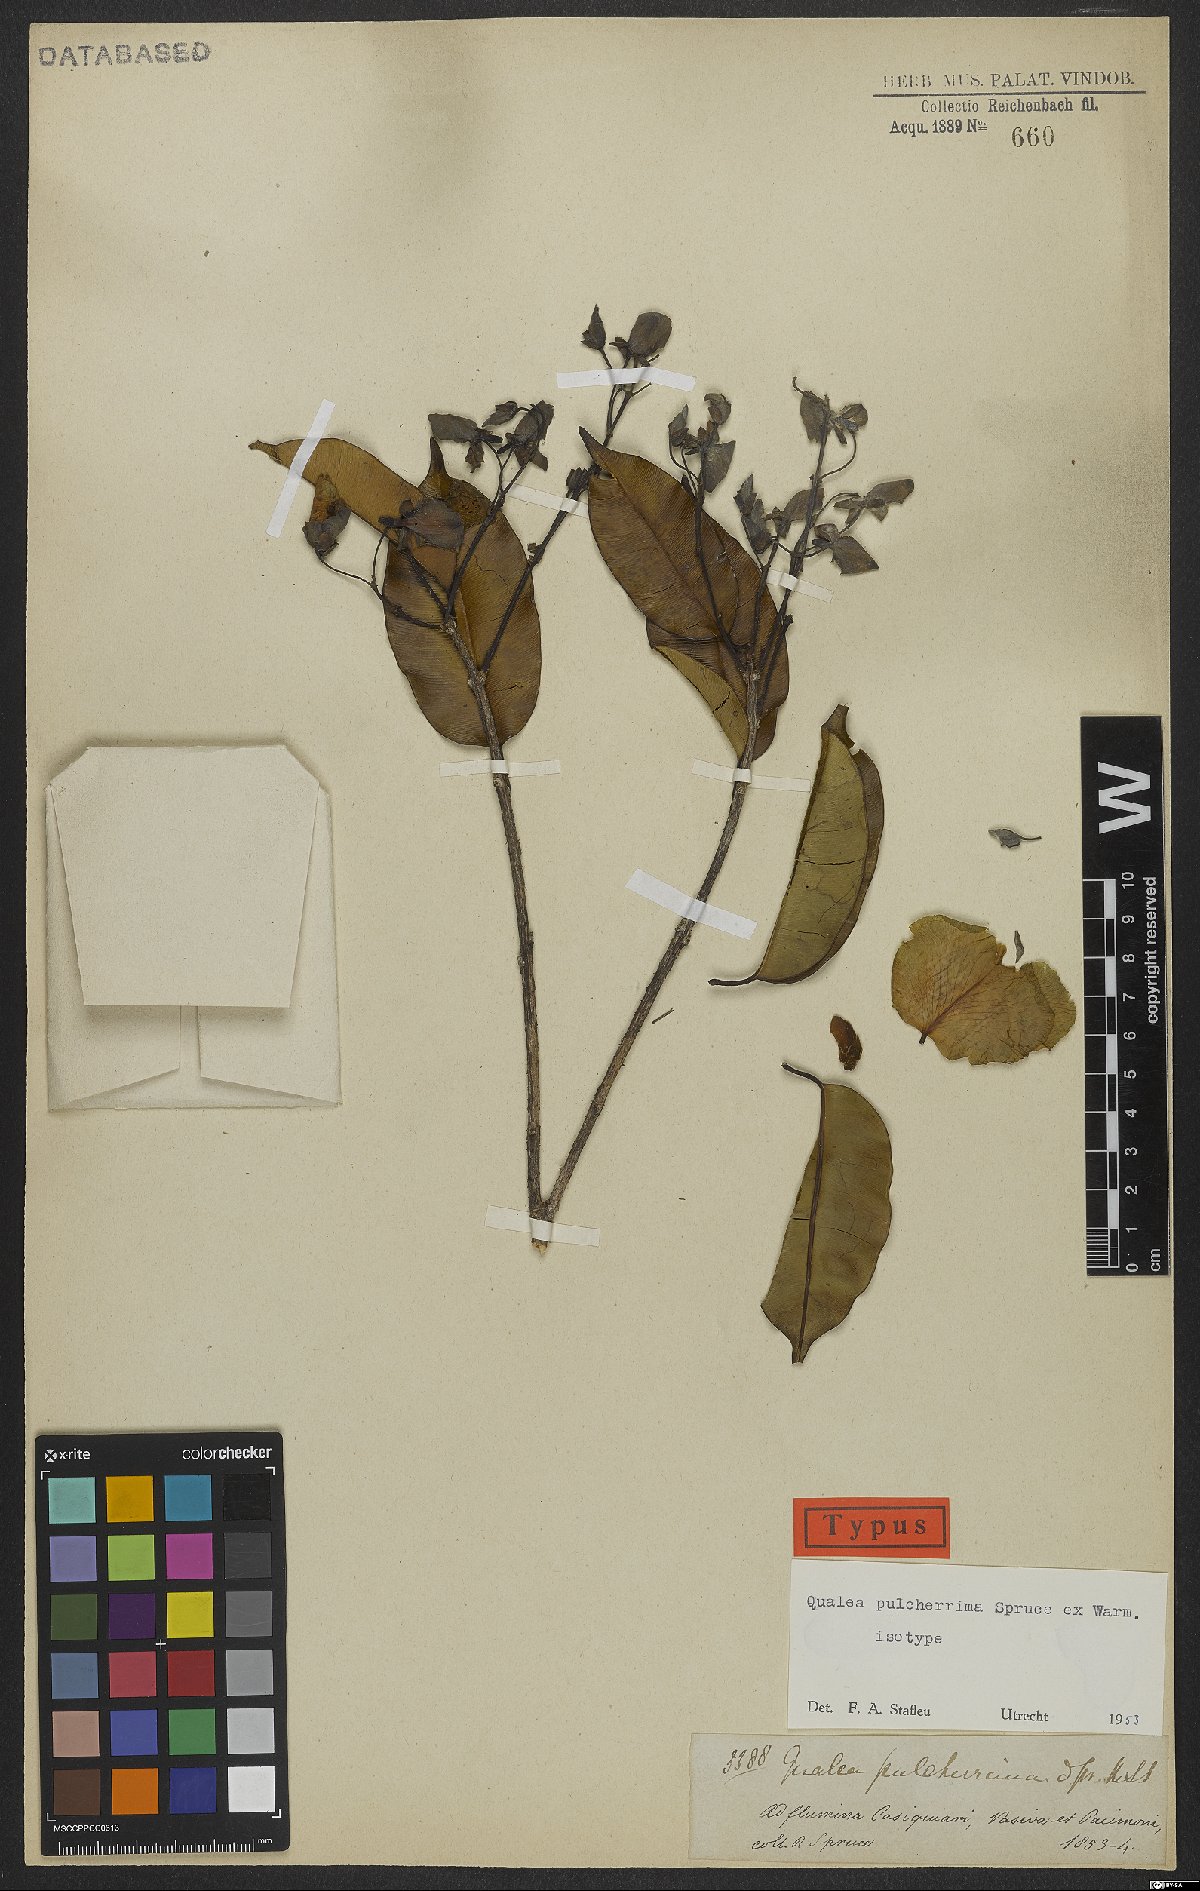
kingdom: Plantae
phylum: Tracheophyta
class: Magnoliopsida
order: Myrtales
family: Vochysiaceae
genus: Qualea
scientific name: Qualea pulcherrima
